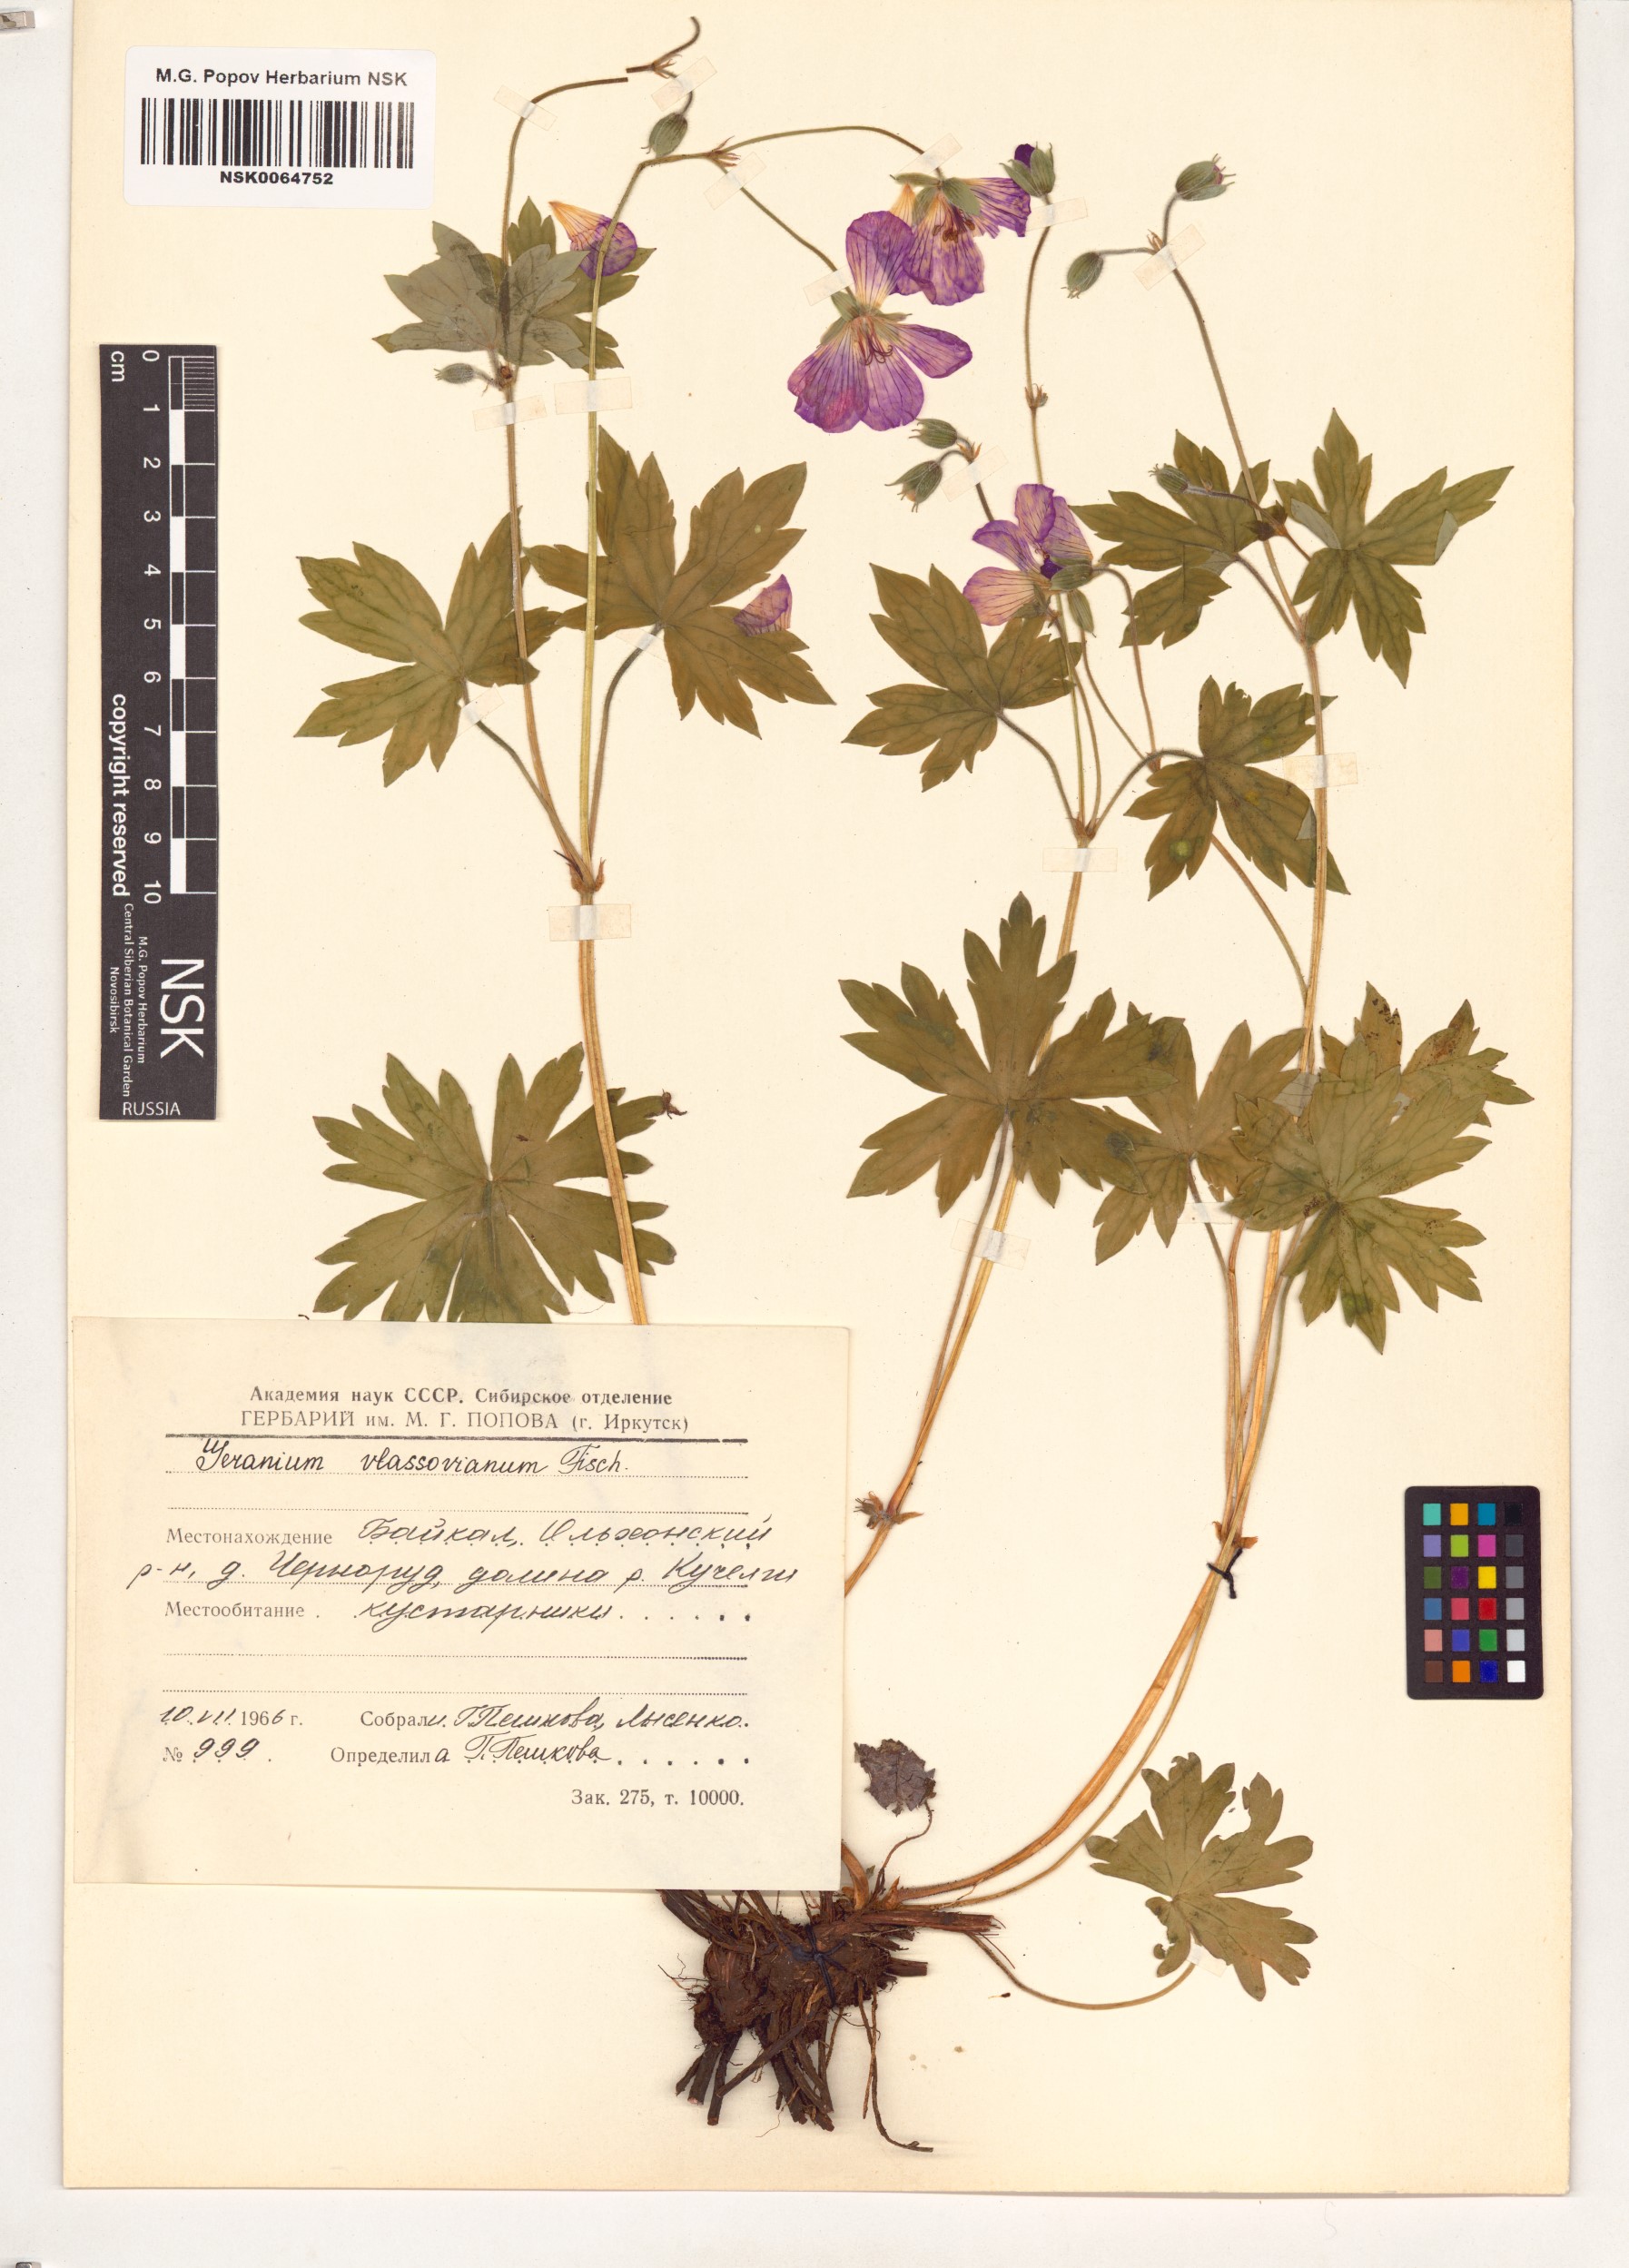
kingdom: Plantae
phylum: Tracheophyta
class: Magnoliopsida
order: Geraniales
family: Geraniaceae
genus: Geranium
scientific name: Geranium wlassovianum
